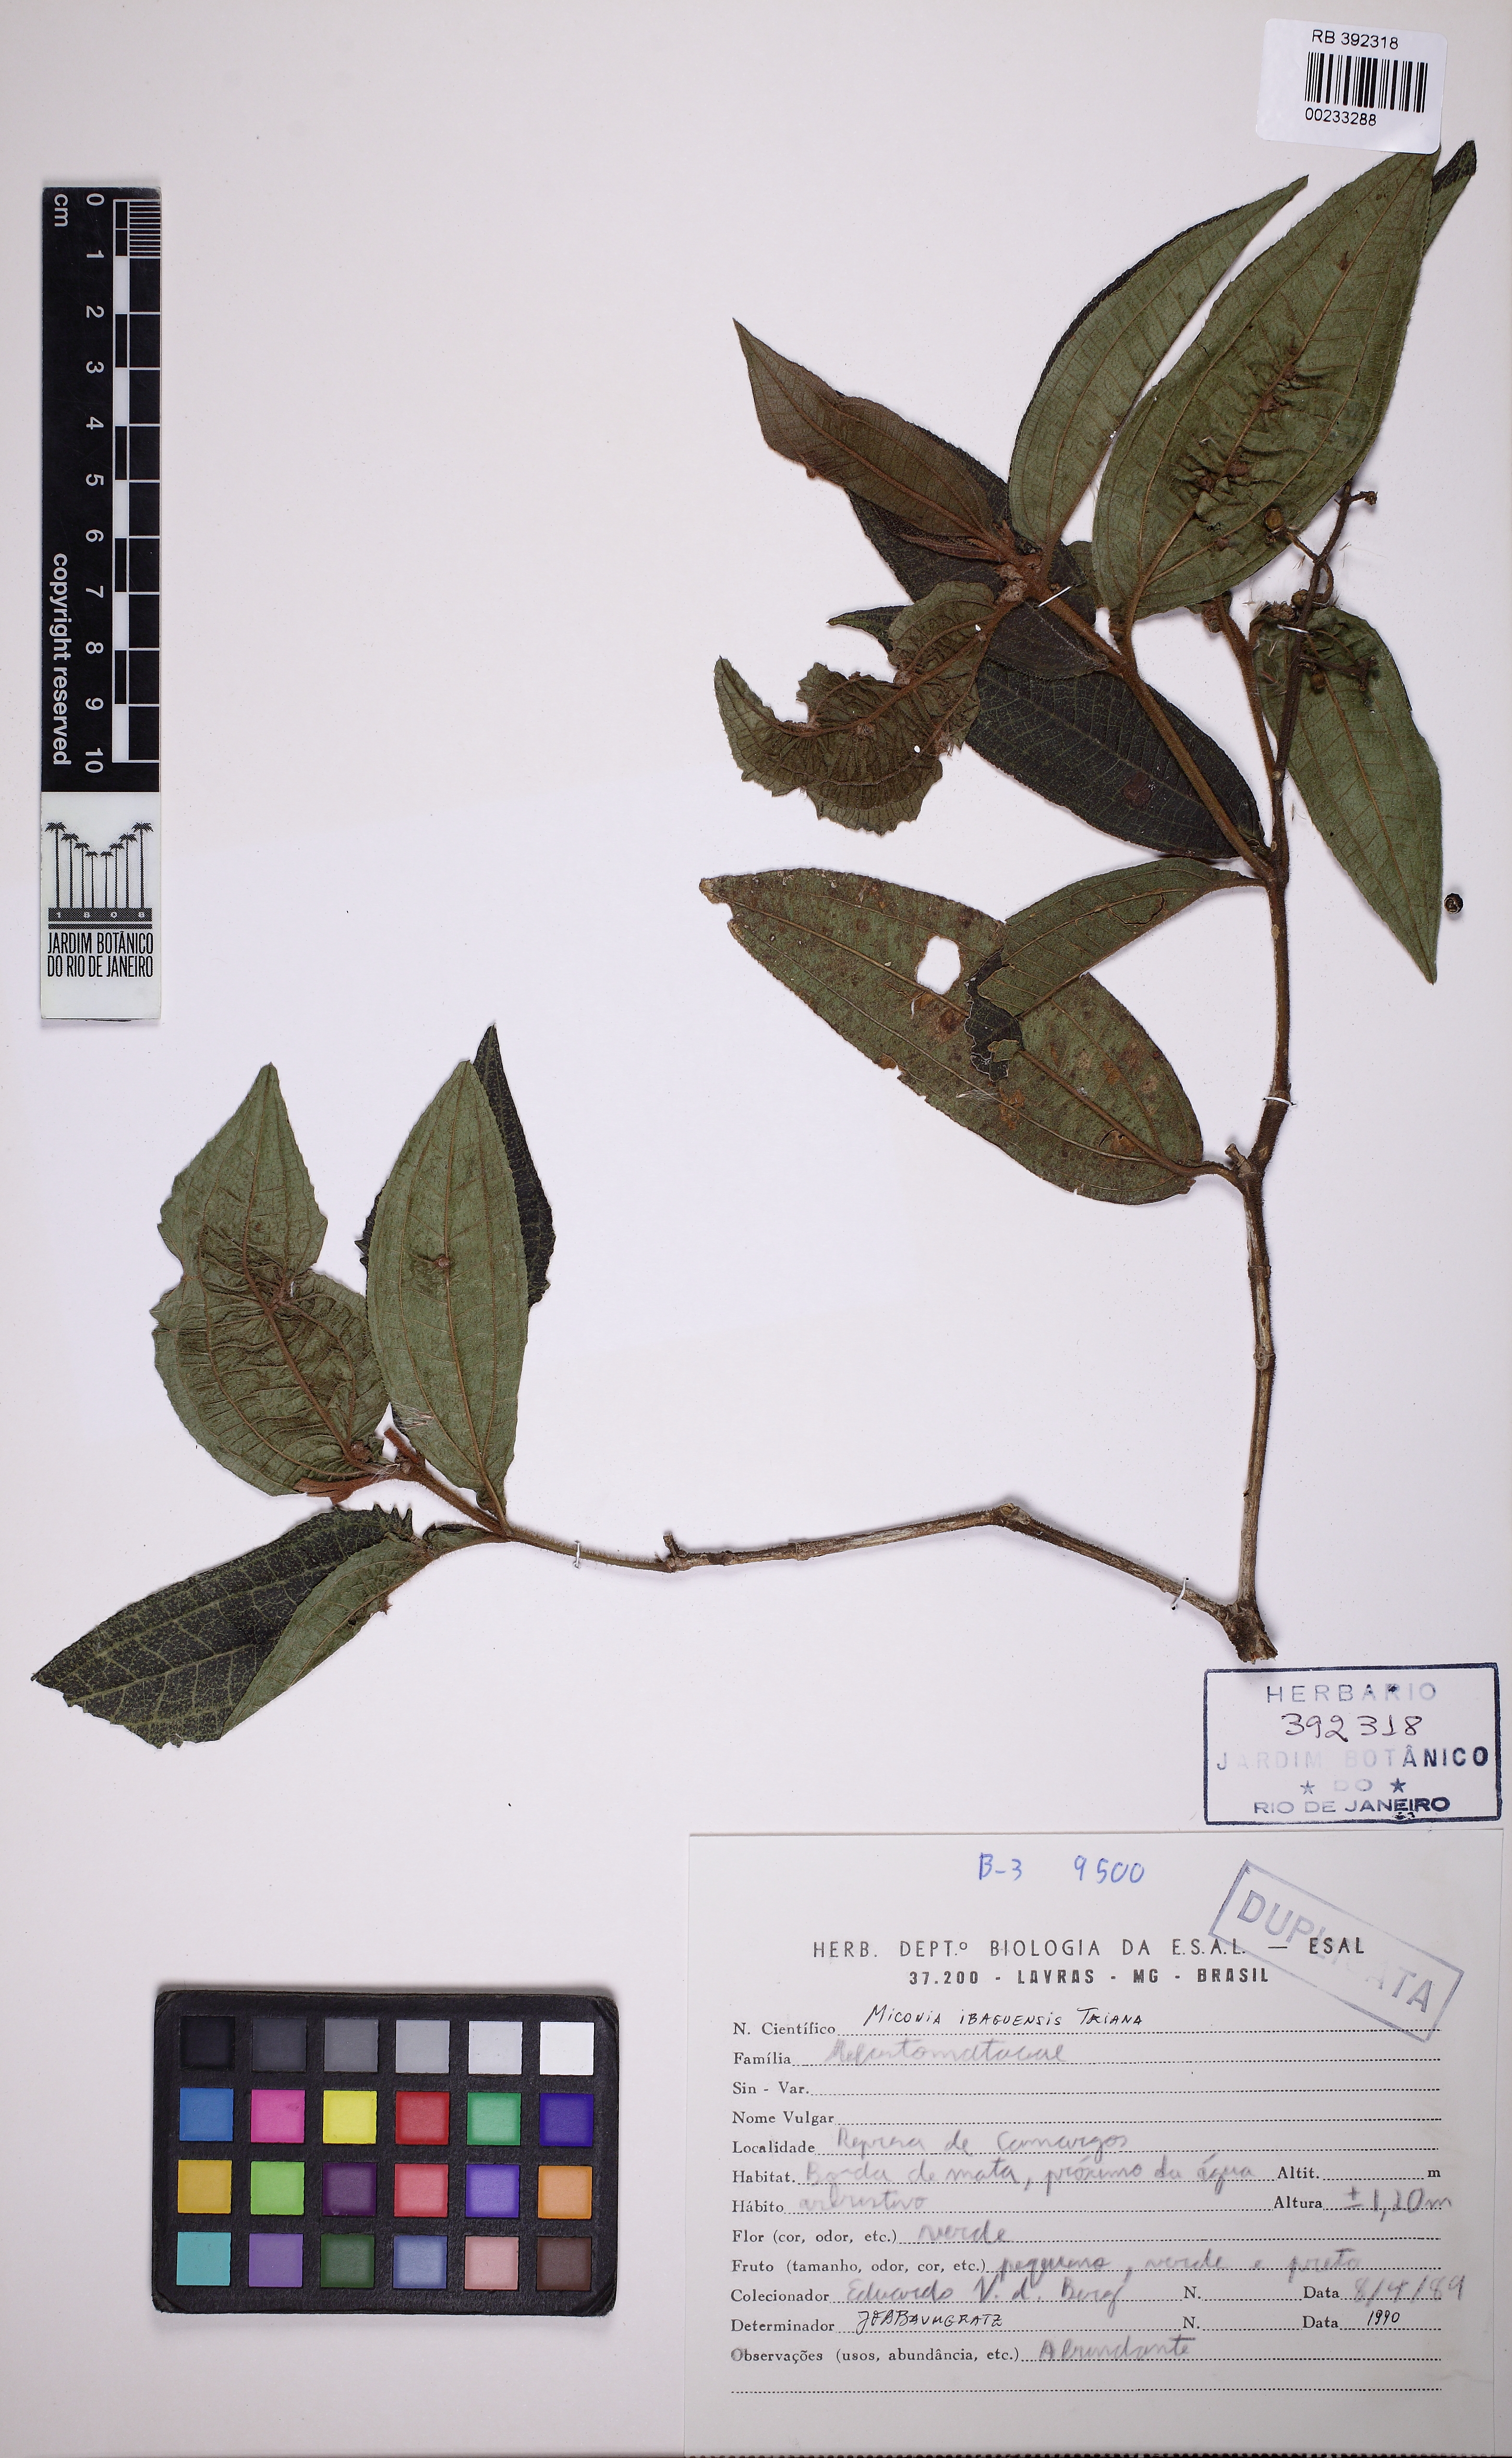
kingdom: Plantae
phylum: Tracheophyta
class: Magnoliopsida
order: Myrtales
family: Melastomataceae
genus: Miconia
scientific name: Miconia ibaguensis
